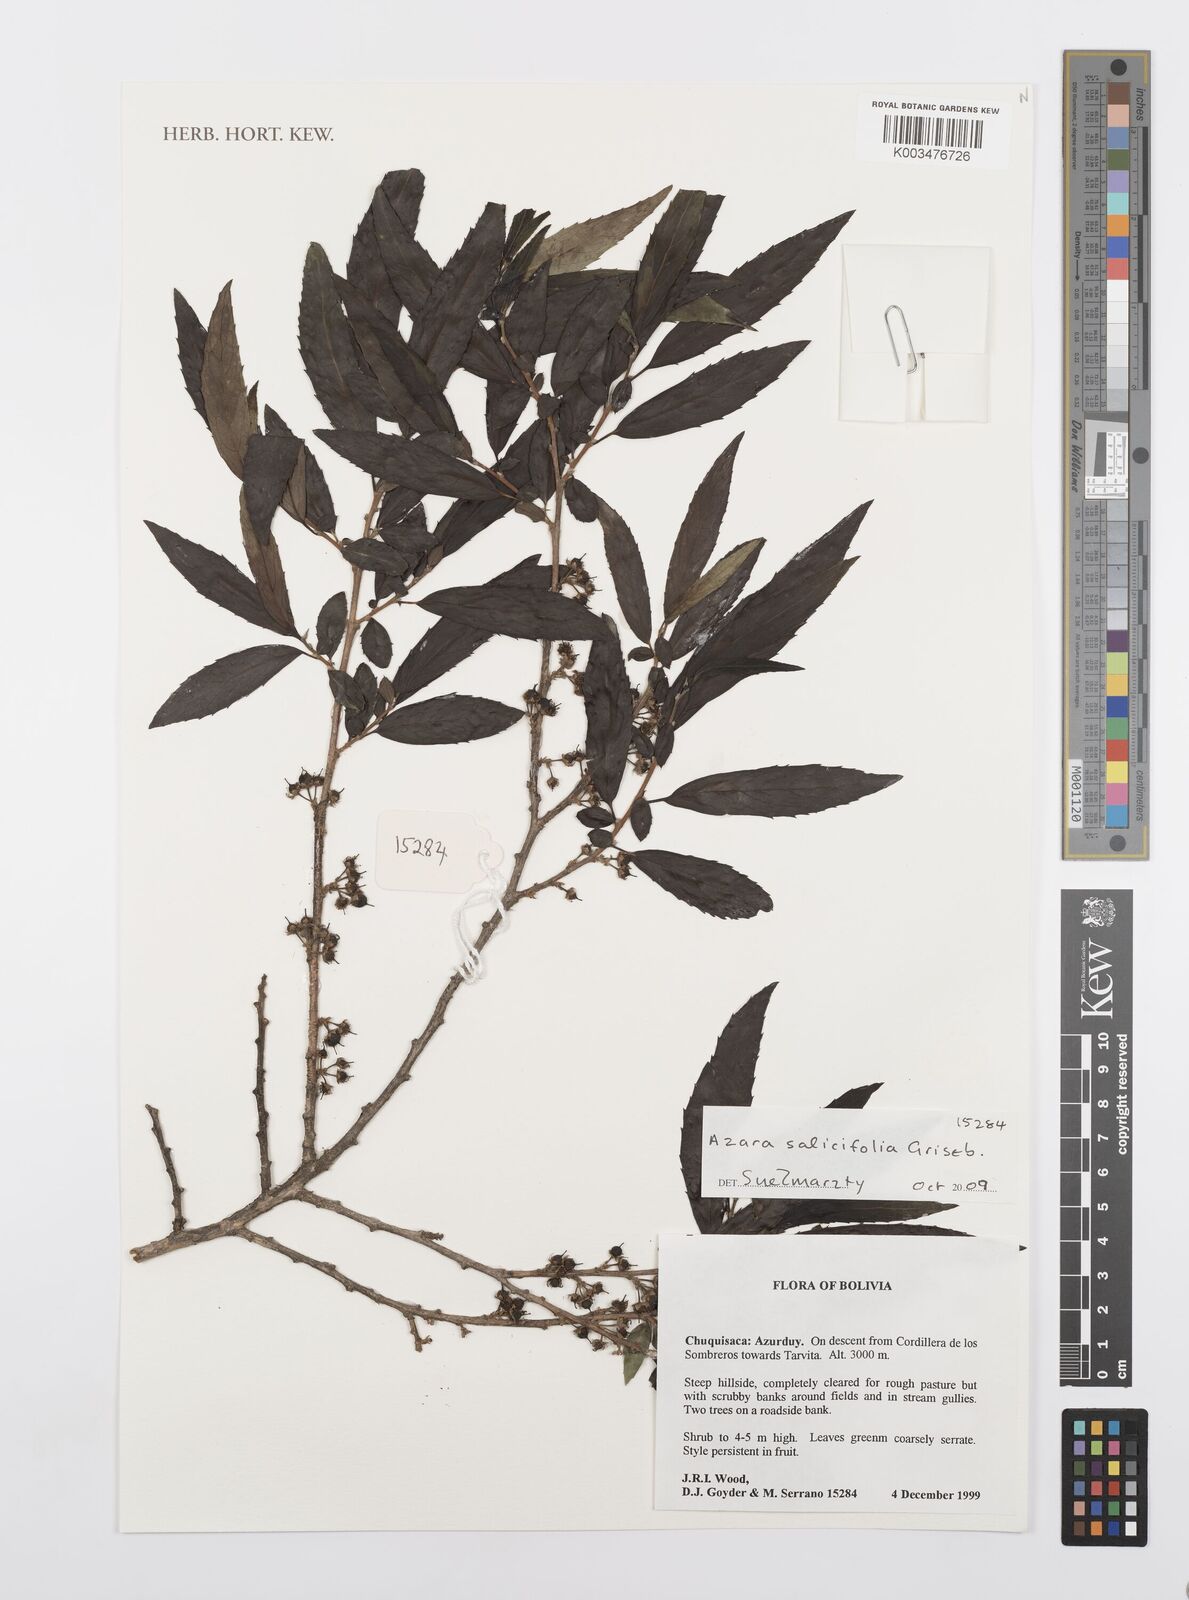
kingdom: Plantae
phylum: Tracheophyta
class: Magnoliopsida
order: Malpighiales
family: Salicaceae
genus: Azara
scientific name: Azara salicifolia
